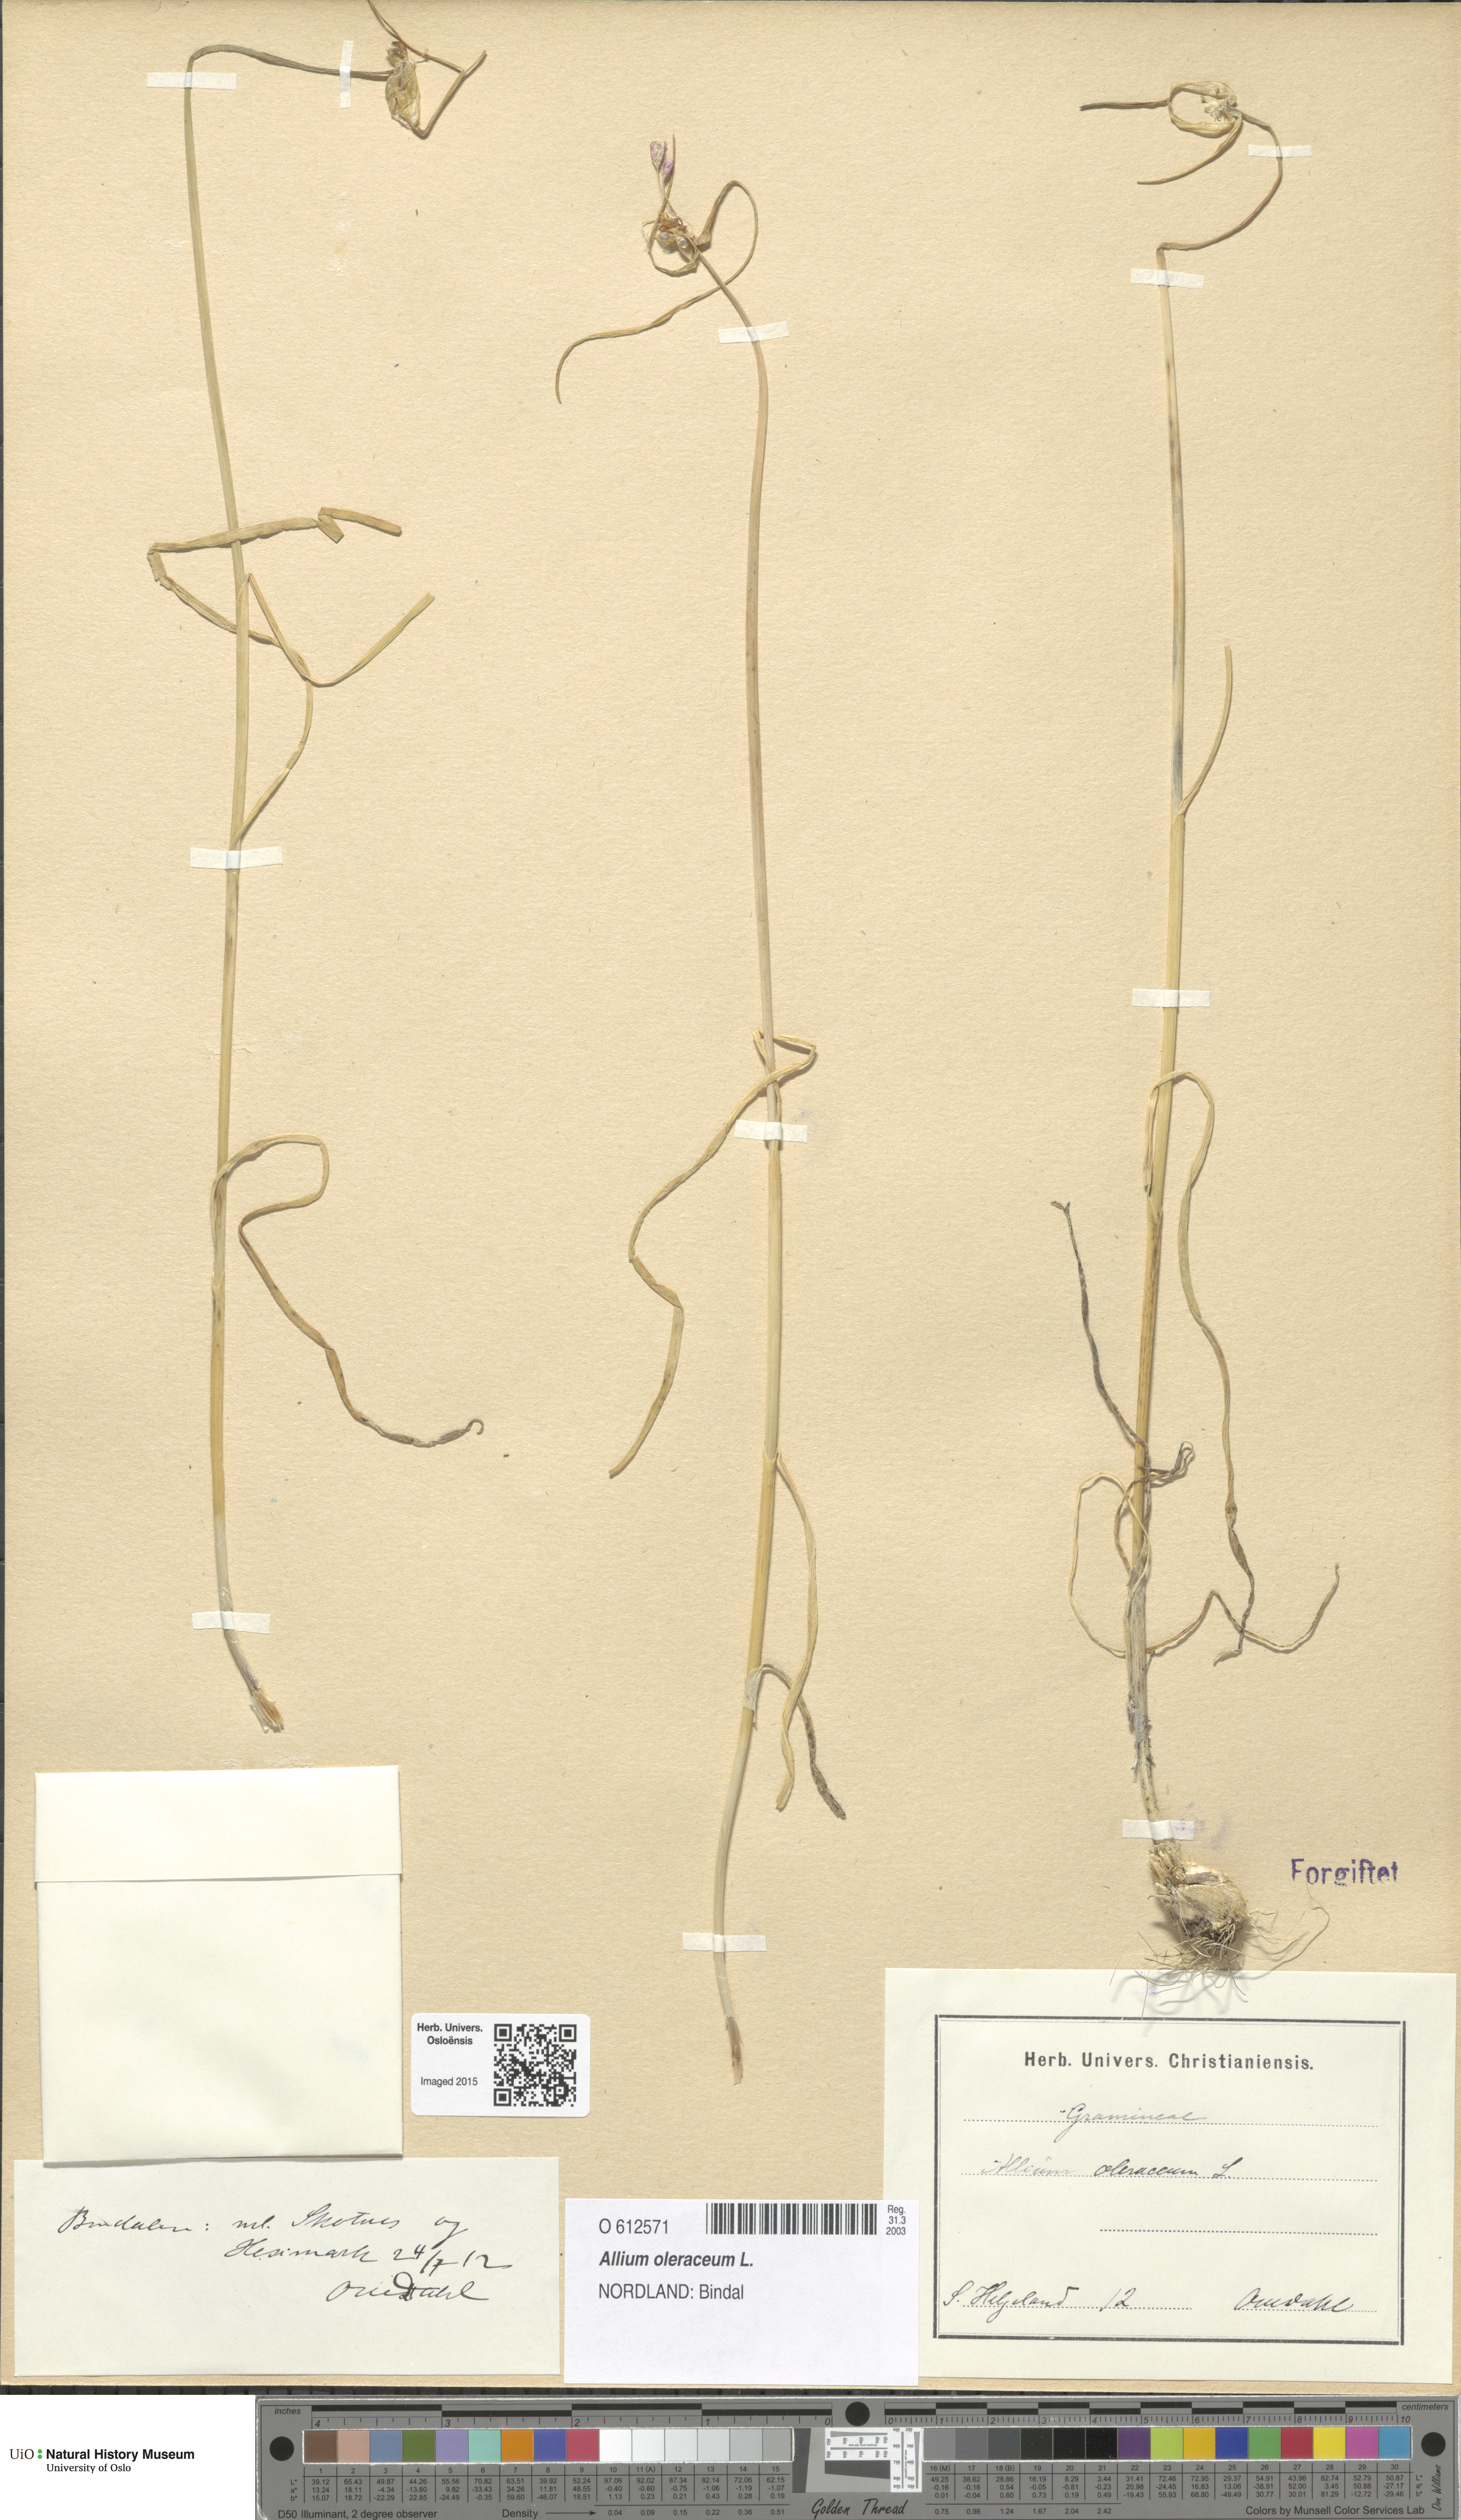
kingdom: Plantae
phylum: Tracheophyta
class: Liliopsida
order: Asparagales
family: Amaryllidaceae
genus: Allium
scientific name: Allium oleraceum
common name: Field garlic
